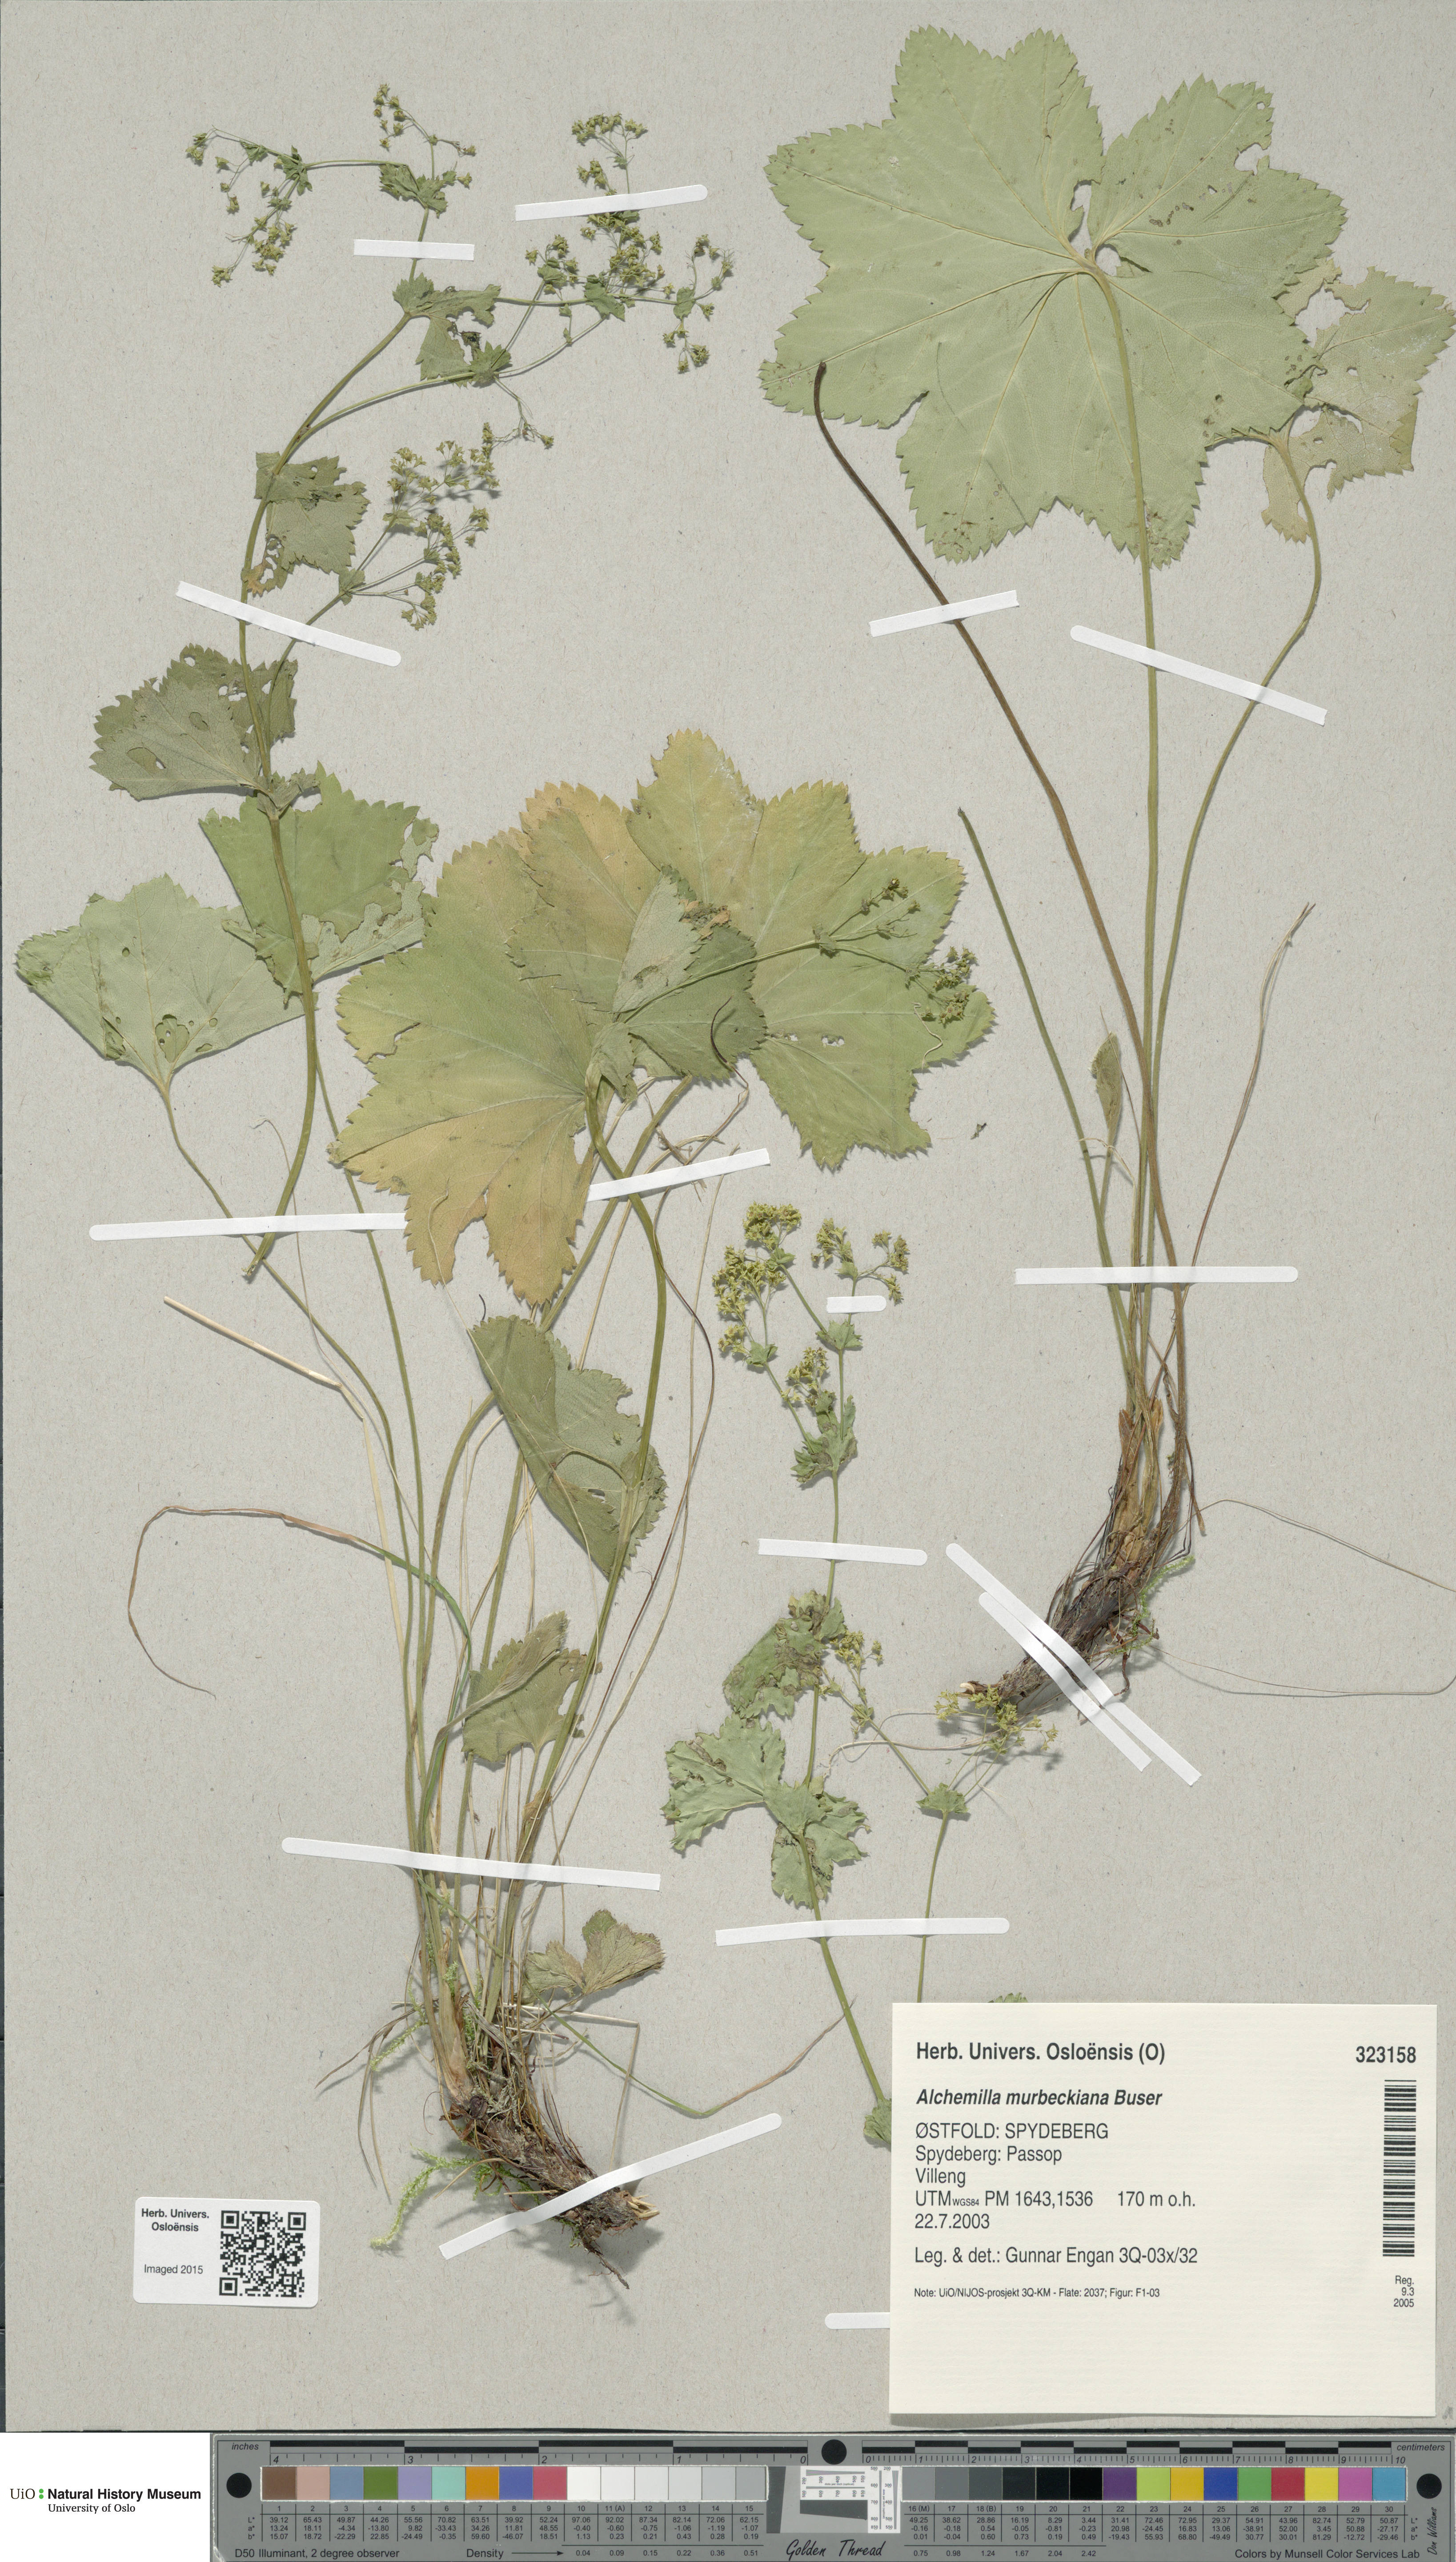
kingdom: Plantae
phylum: Tracheophyta
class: Magnoliopsida
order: Rosales
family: Rosaceae
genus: Alchemilla
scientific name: Alchemilla murbeckiana
